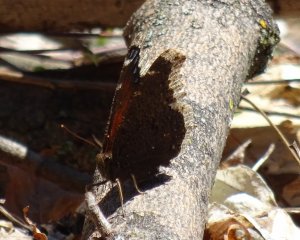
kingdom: Animalia
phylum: Arthropoda
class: Insecta
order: Lepidoptera
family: Nymphalidae
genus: Nymphalis
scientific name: Nymphalis antiopa
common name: Mourning Cloak
